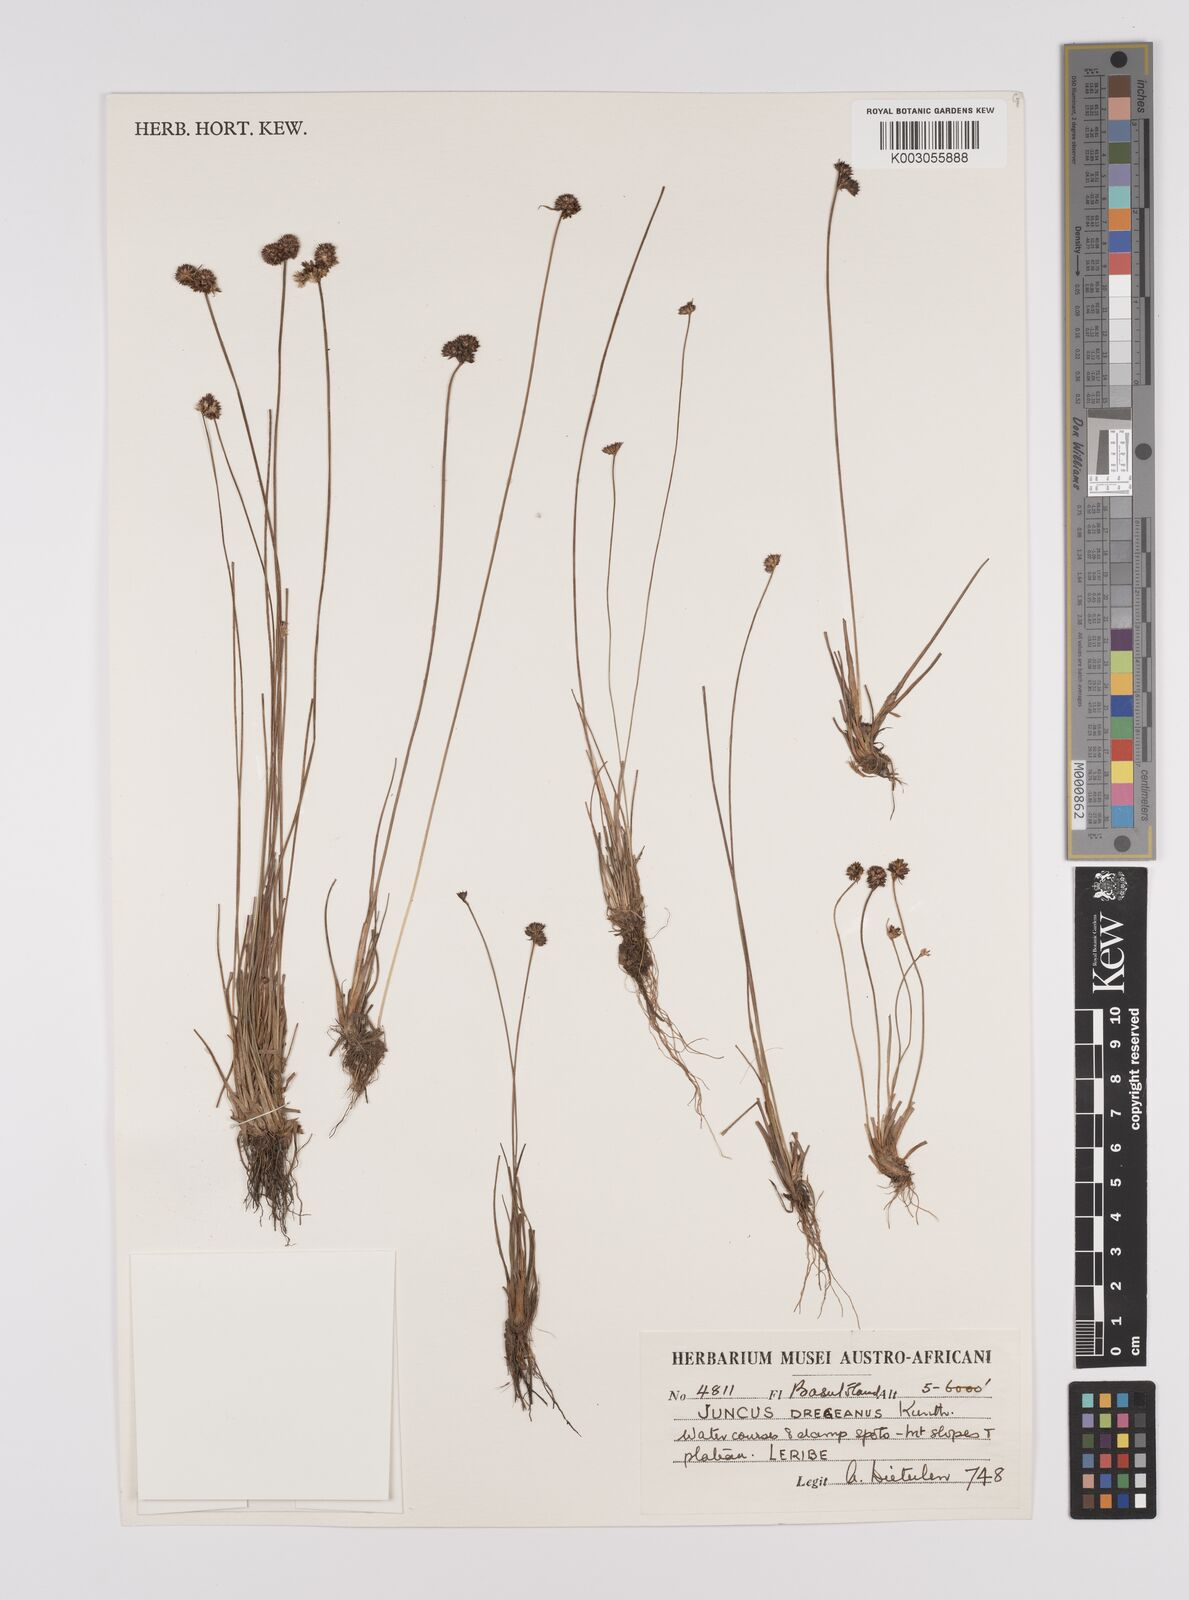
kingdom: Plantae
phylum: Tracheophyta
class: Liliopsida
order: Poales
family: Juncaceae
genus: Juncus
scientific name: Juncus dregeanus
